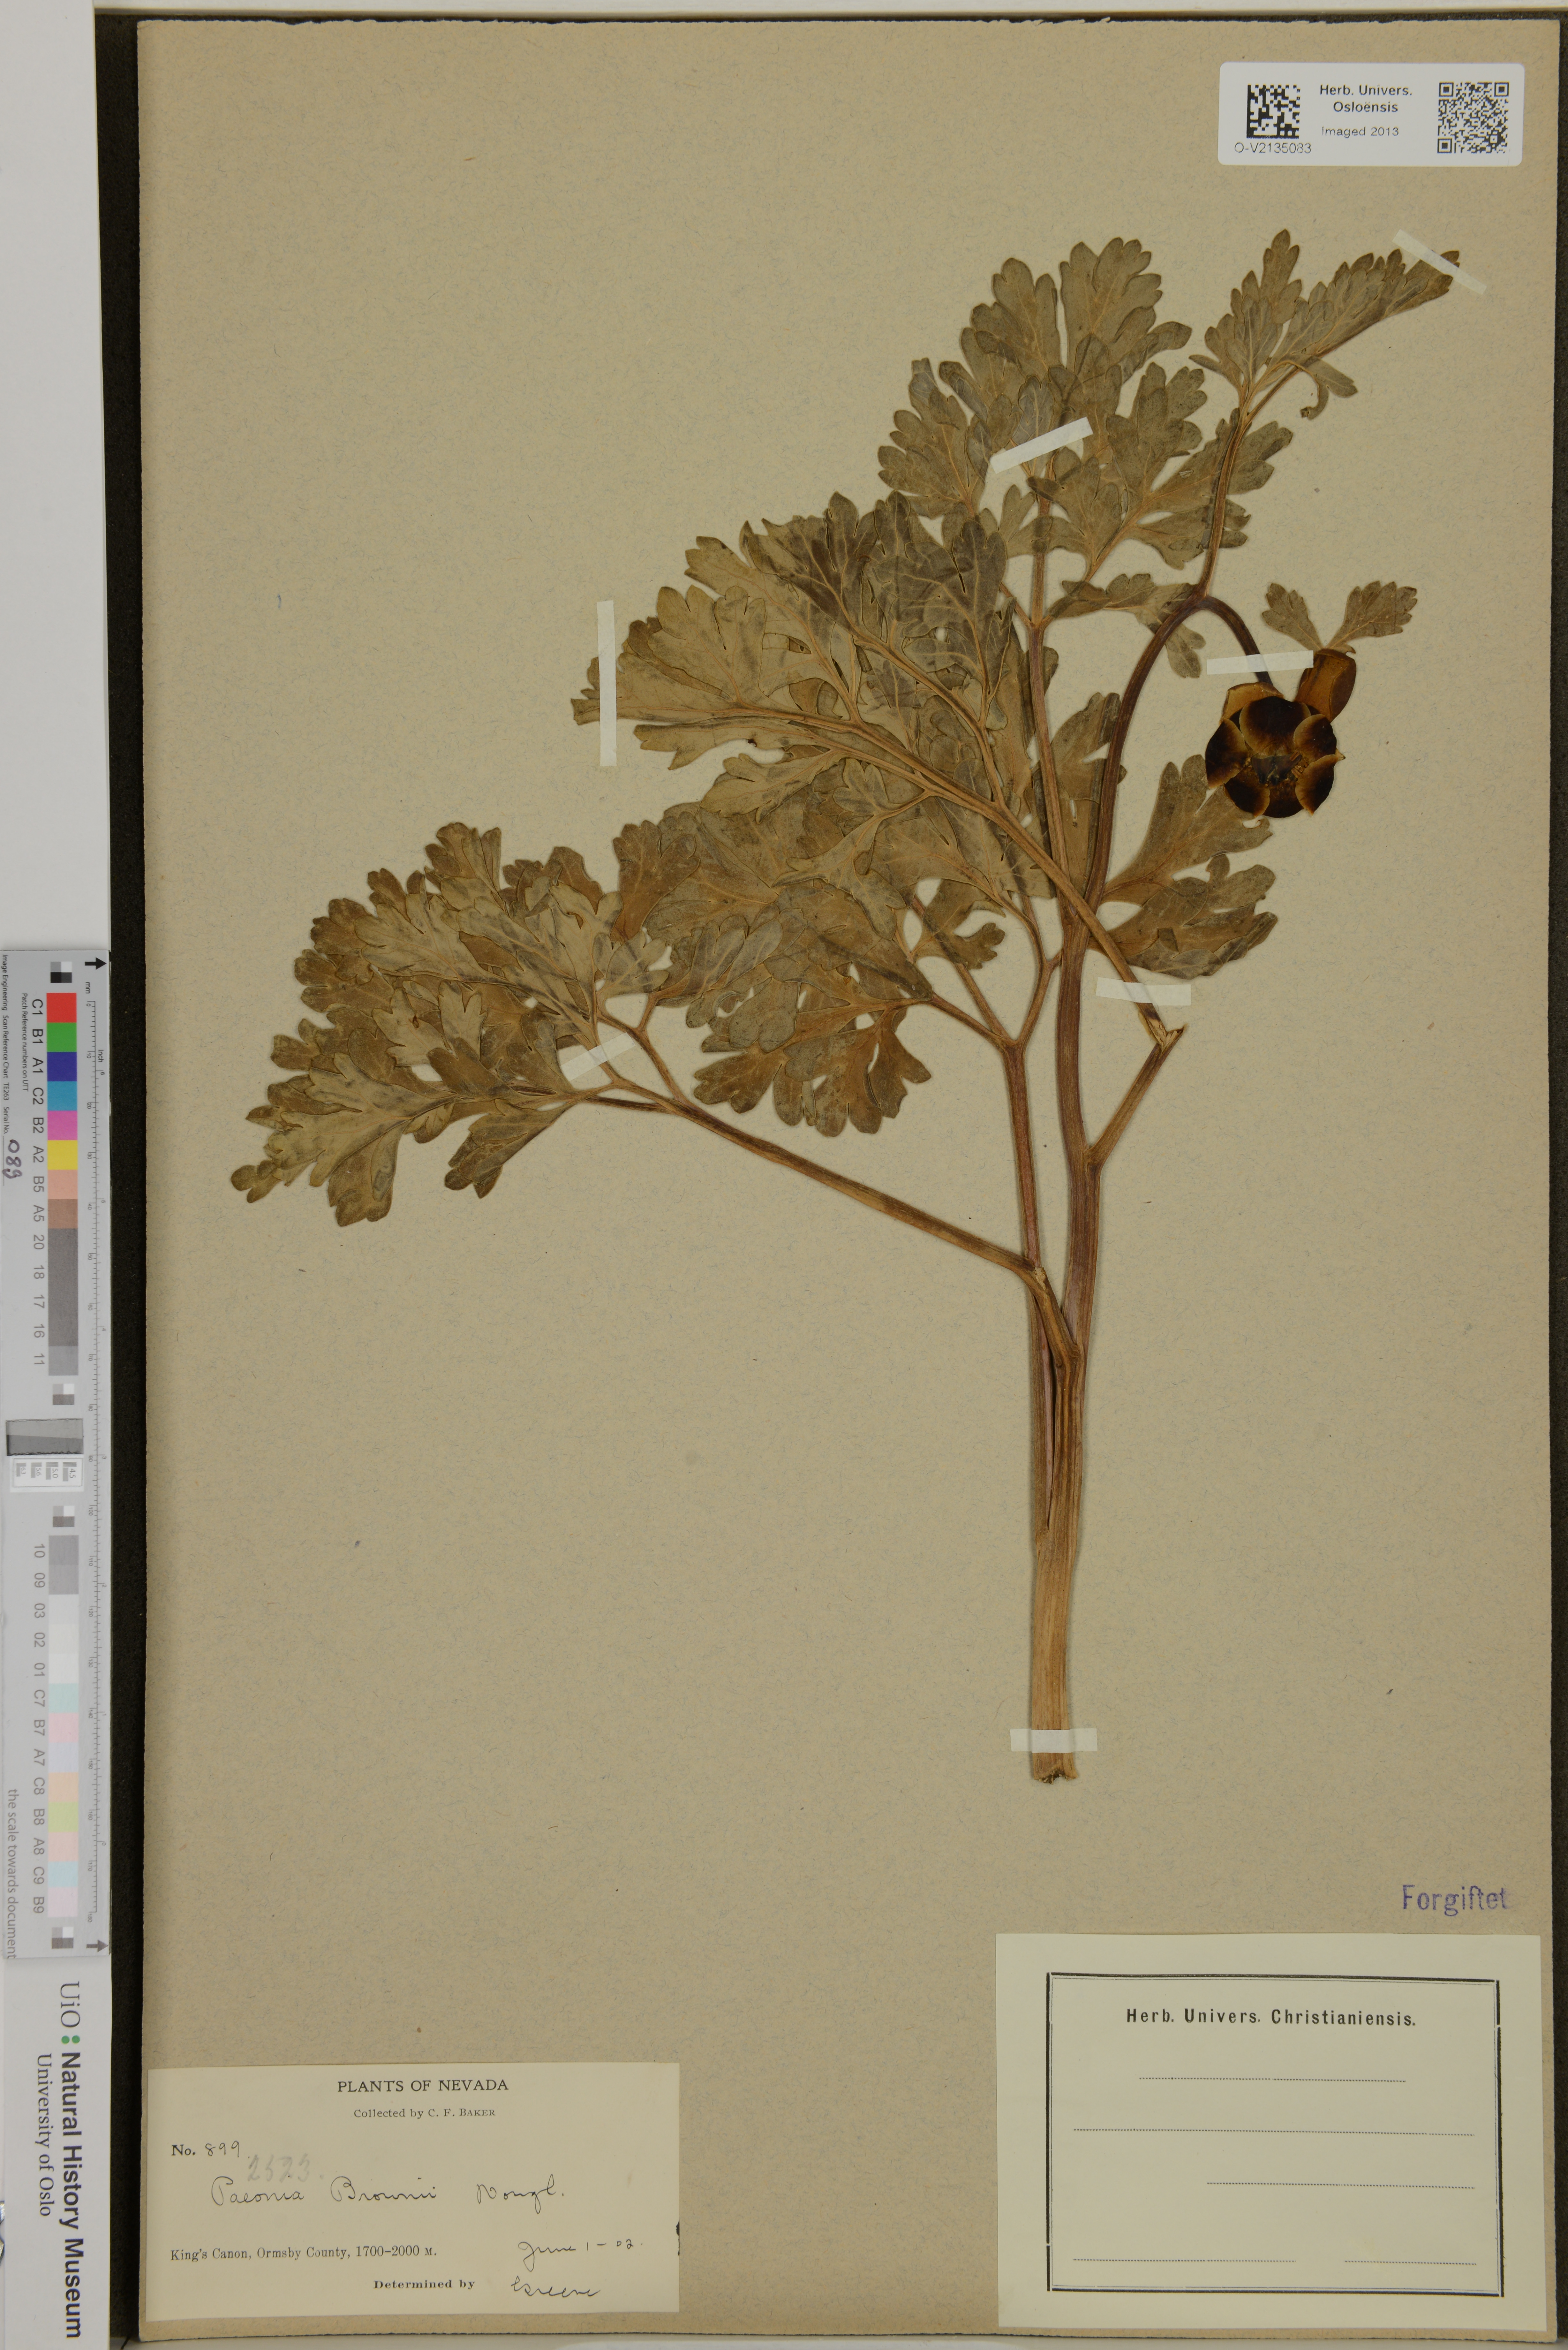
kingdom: Plantae
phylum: Tracheophyta
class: Magnoliopsida
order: Saxifragales
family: Paeoniaceae
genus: Paeonia
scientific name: Paeonia brownii
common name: Brown's peony
